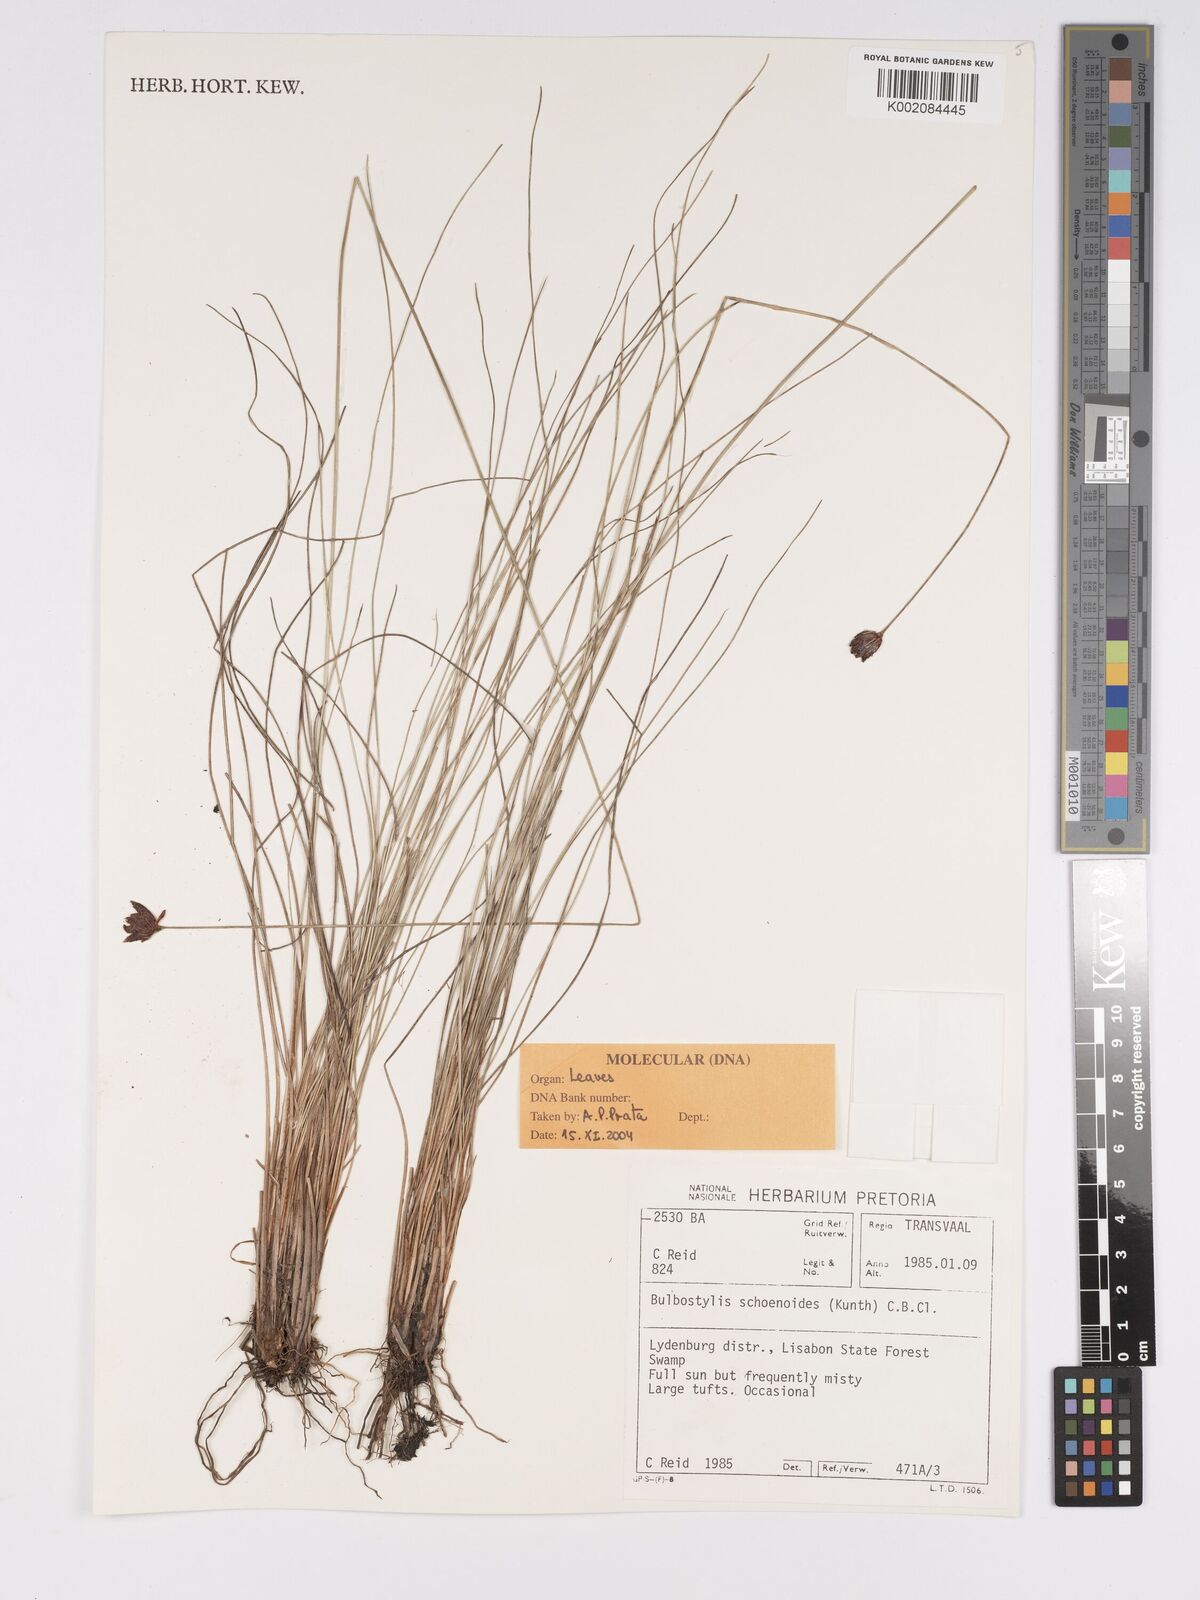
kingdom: Plantae
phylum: Tracheophyta
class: Liliopsida
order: Poales
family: Cyperaceae
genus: Bulbostylis
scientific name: Bulbostylis schoenoides
